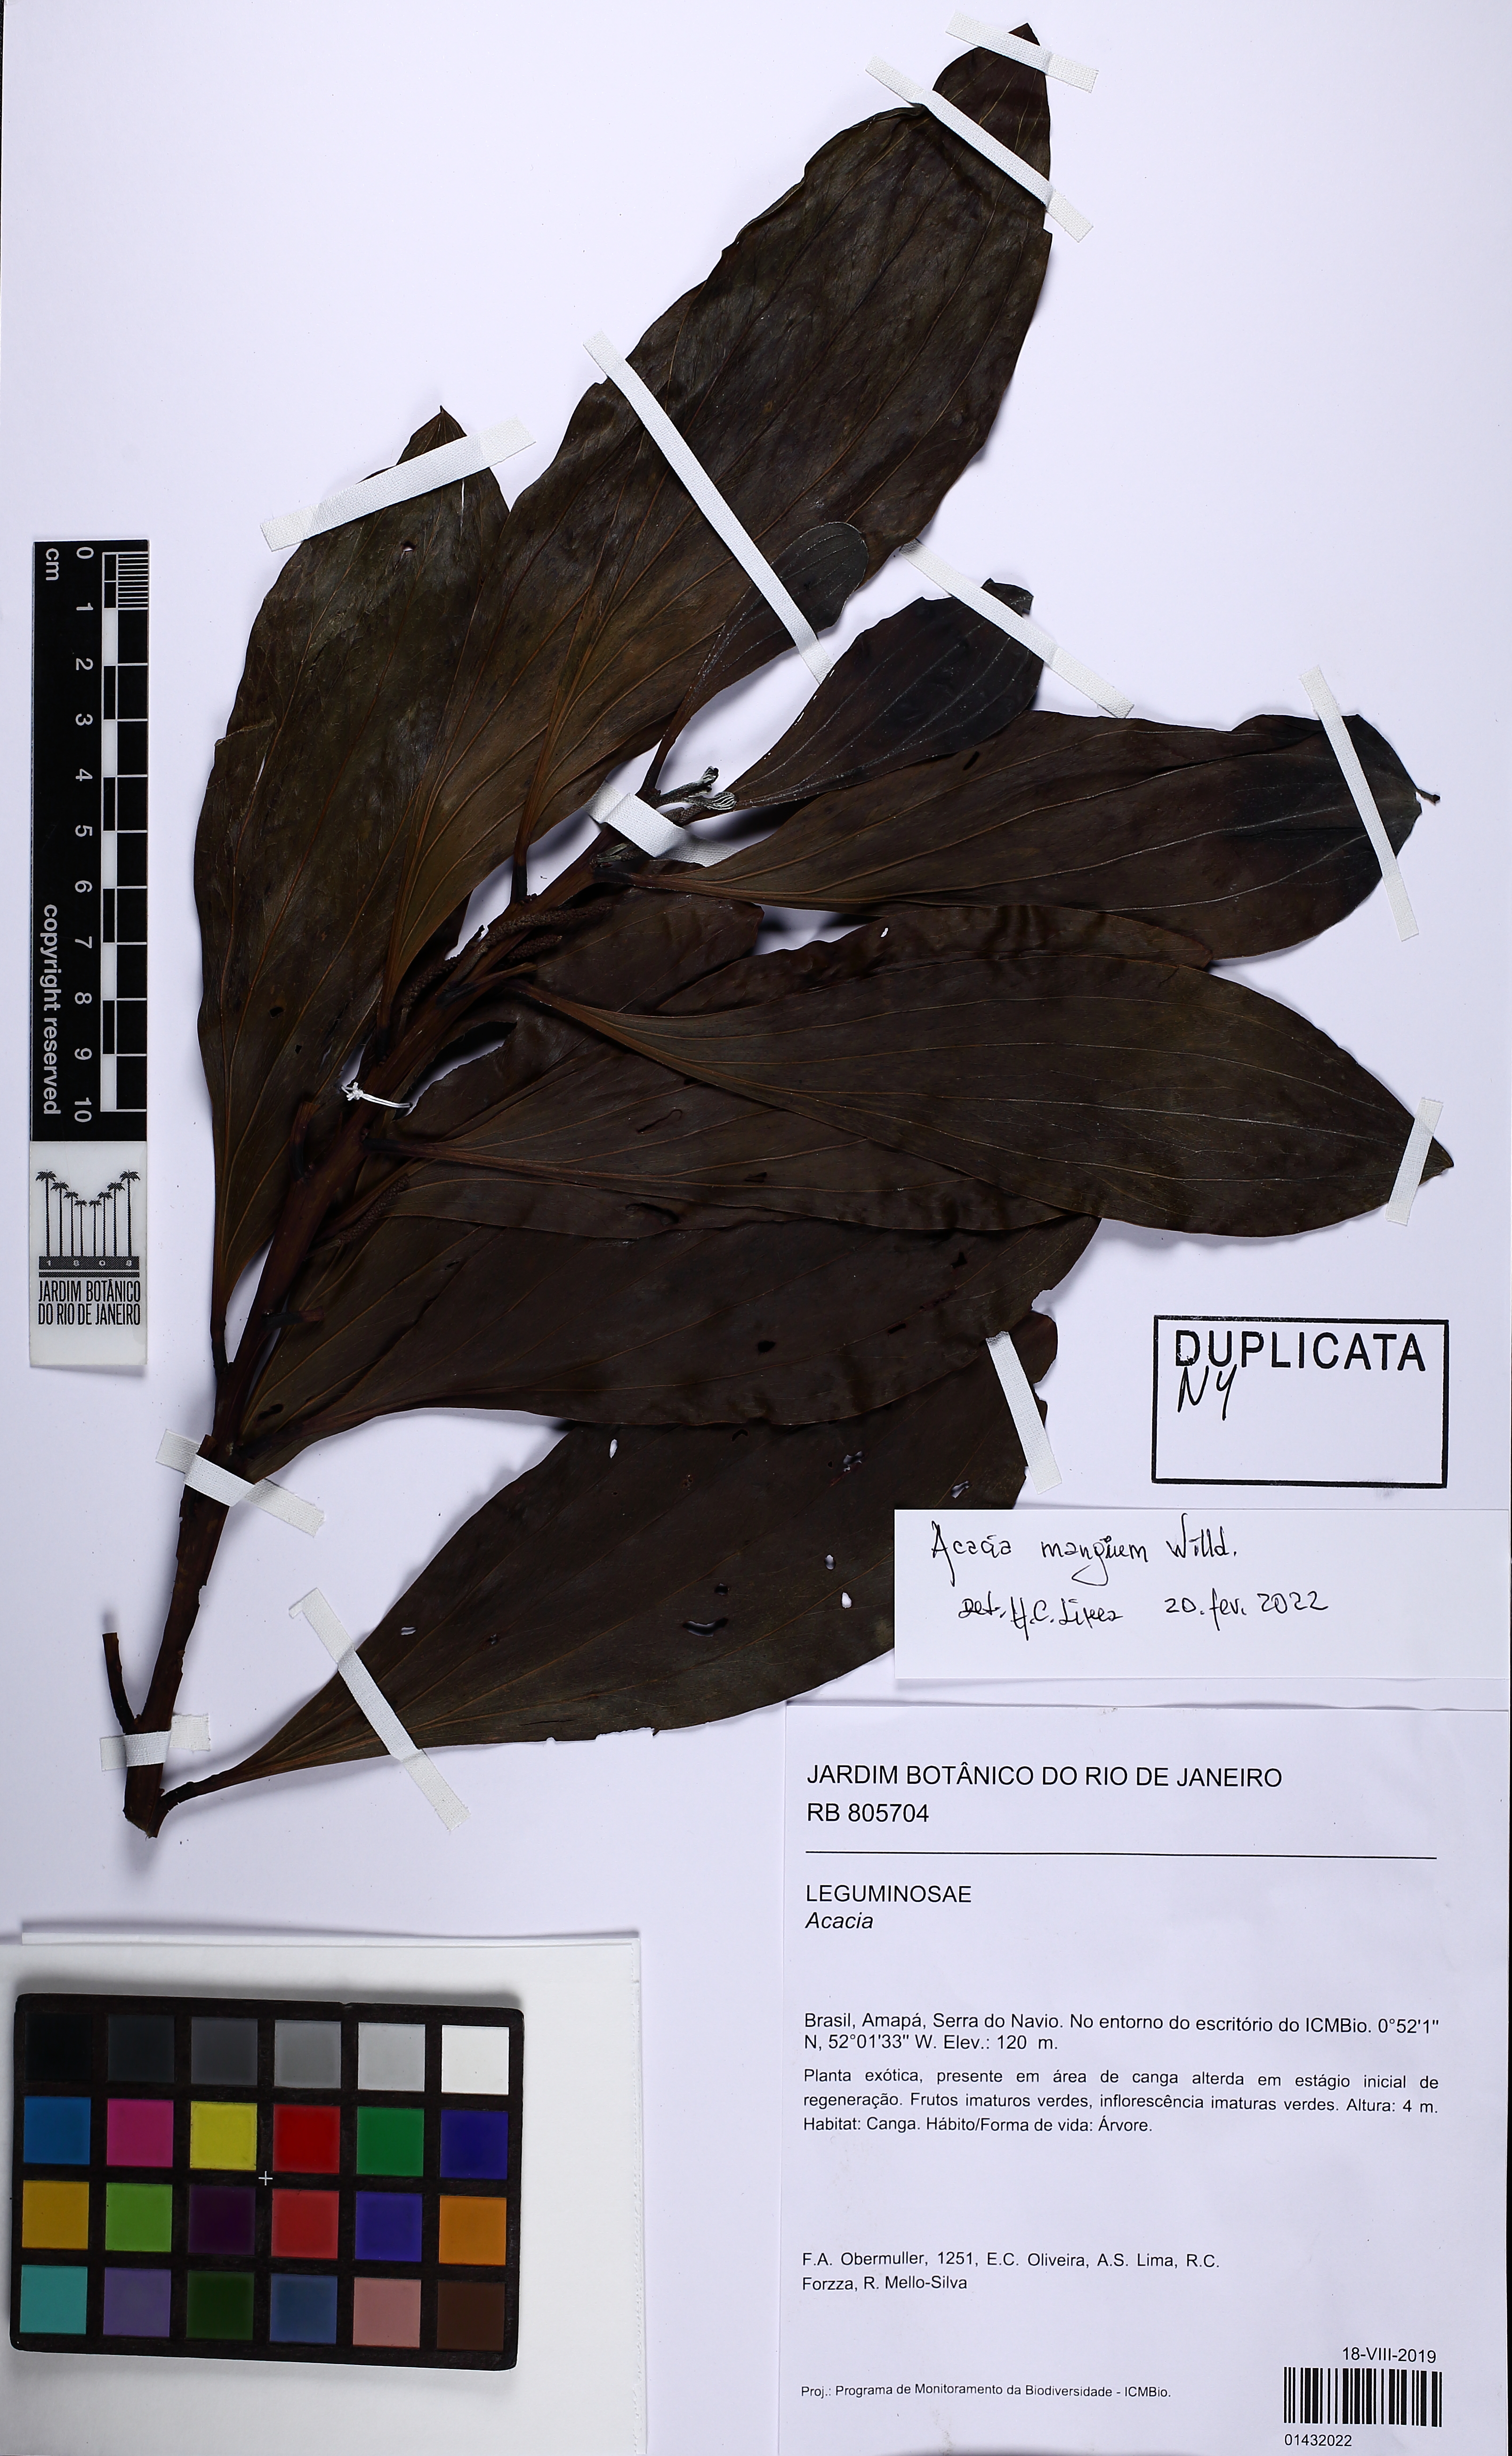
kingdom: Plantae
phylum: Tracheophyta
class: Magnoliopsida
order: Fabales
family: Fabaceae
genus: Acacia
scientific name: Acacia mangium
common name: Black wattle
